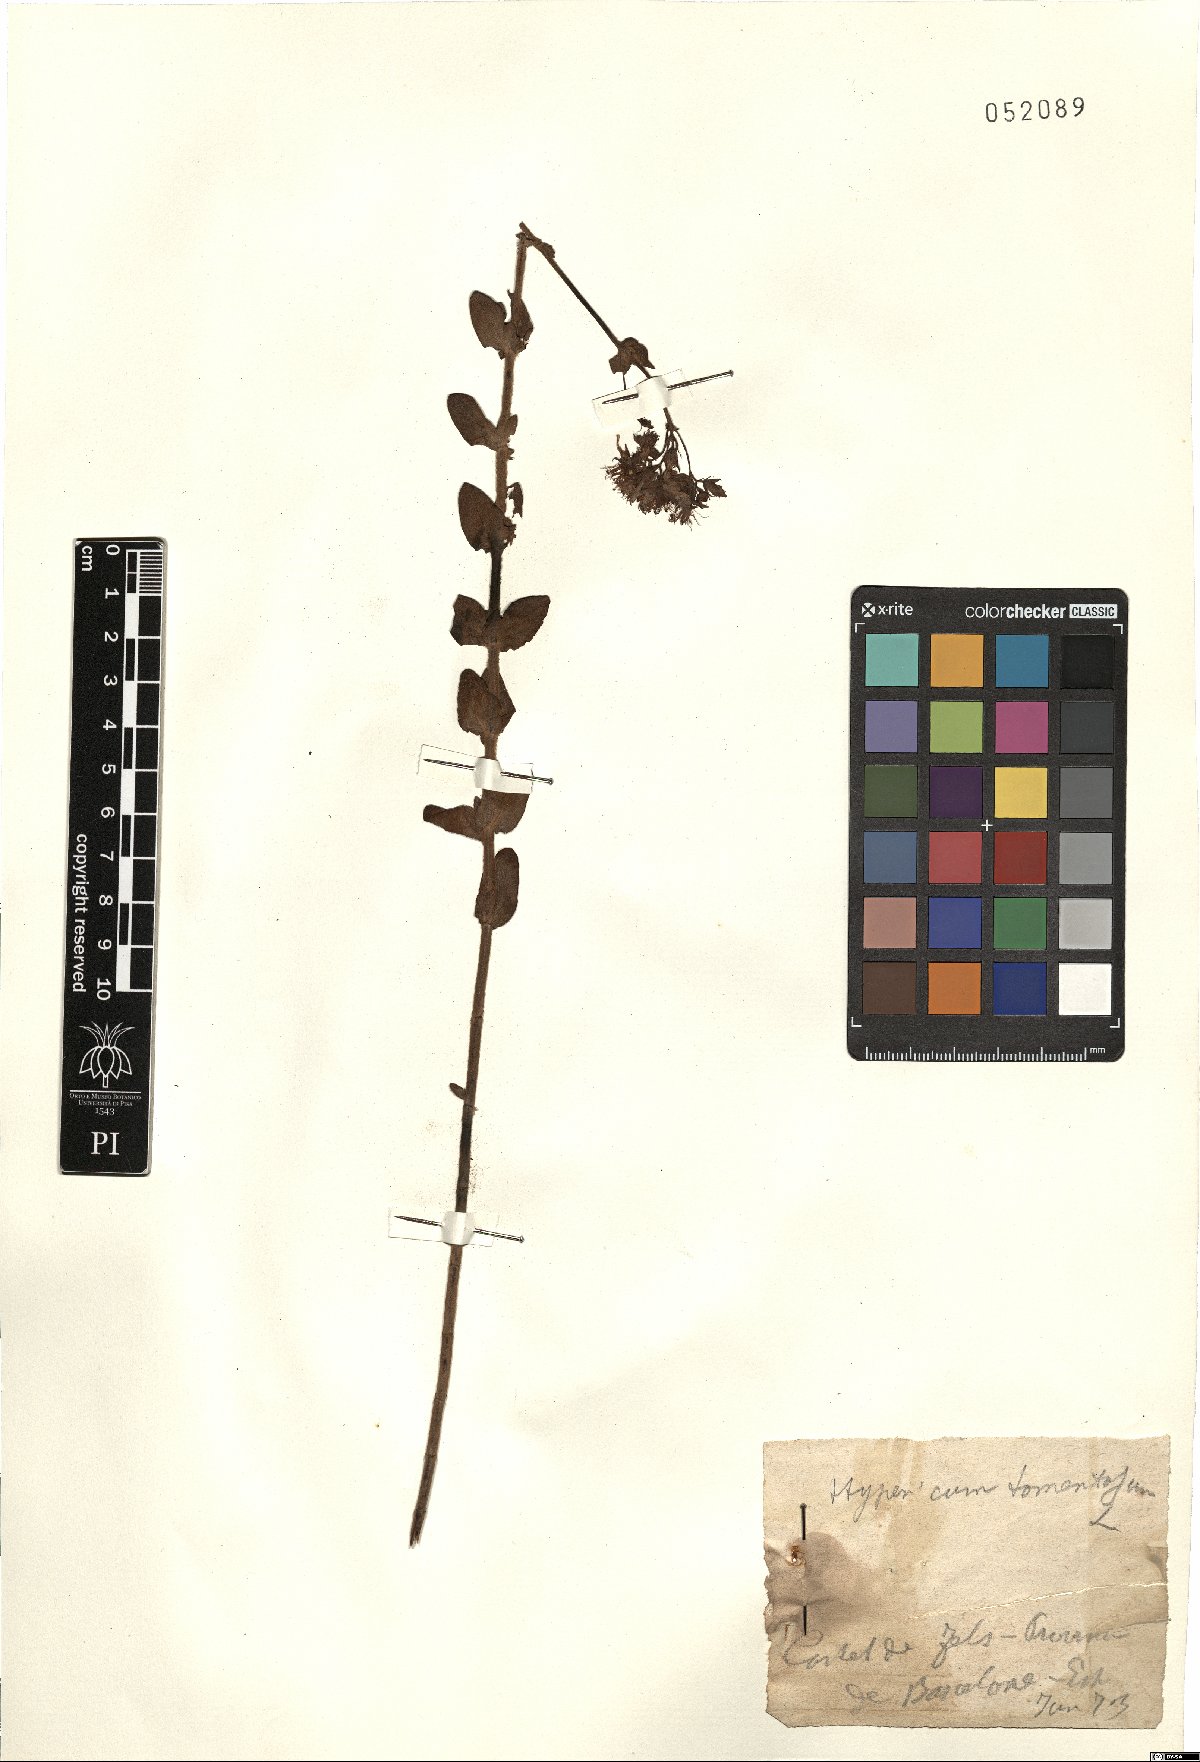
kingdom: Plantae
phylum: Tracheophyta
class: Magnoliopsida
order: Malpighiales
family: Hypericaceae
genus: Hypericum
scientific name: Hypericum tomentosum
